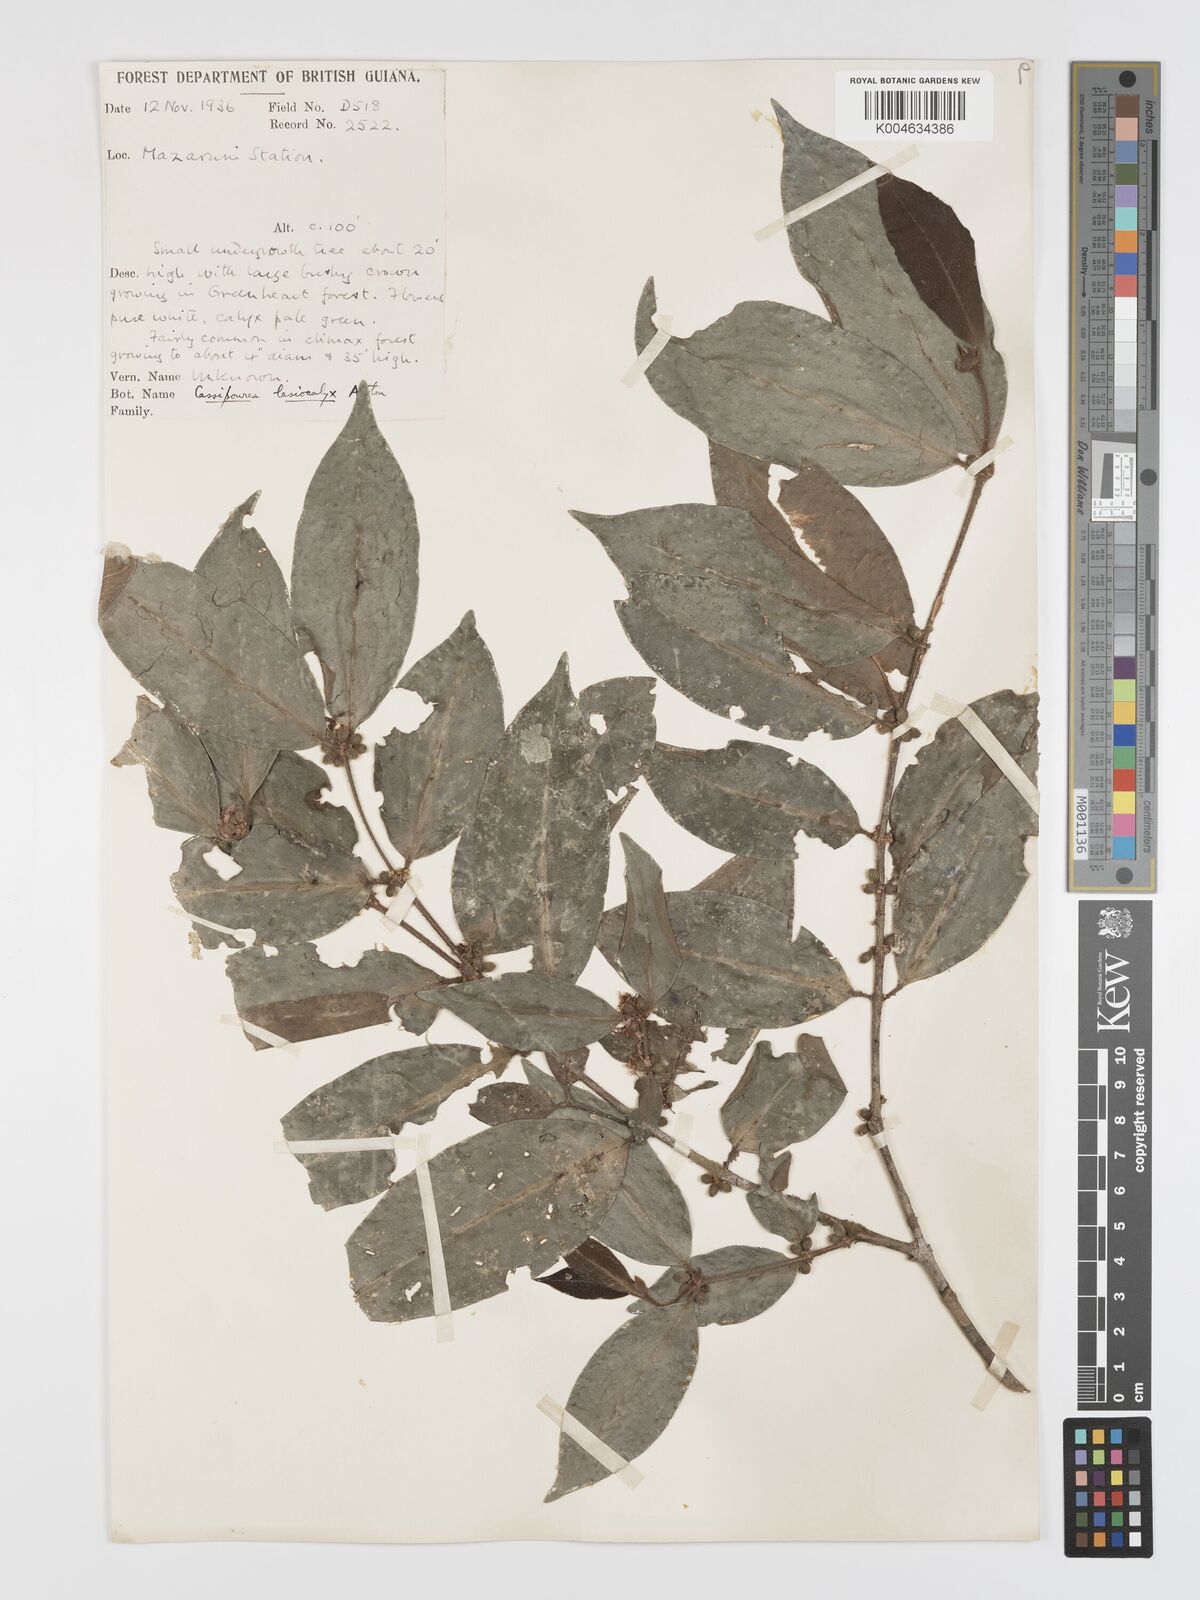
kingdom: Plantae
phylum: Tracheophyta
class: Magnoliopsida
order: Malpighiales
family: Rhizophoraceae
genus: Cassipourea
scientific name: Cassipourea lasiocalyx
